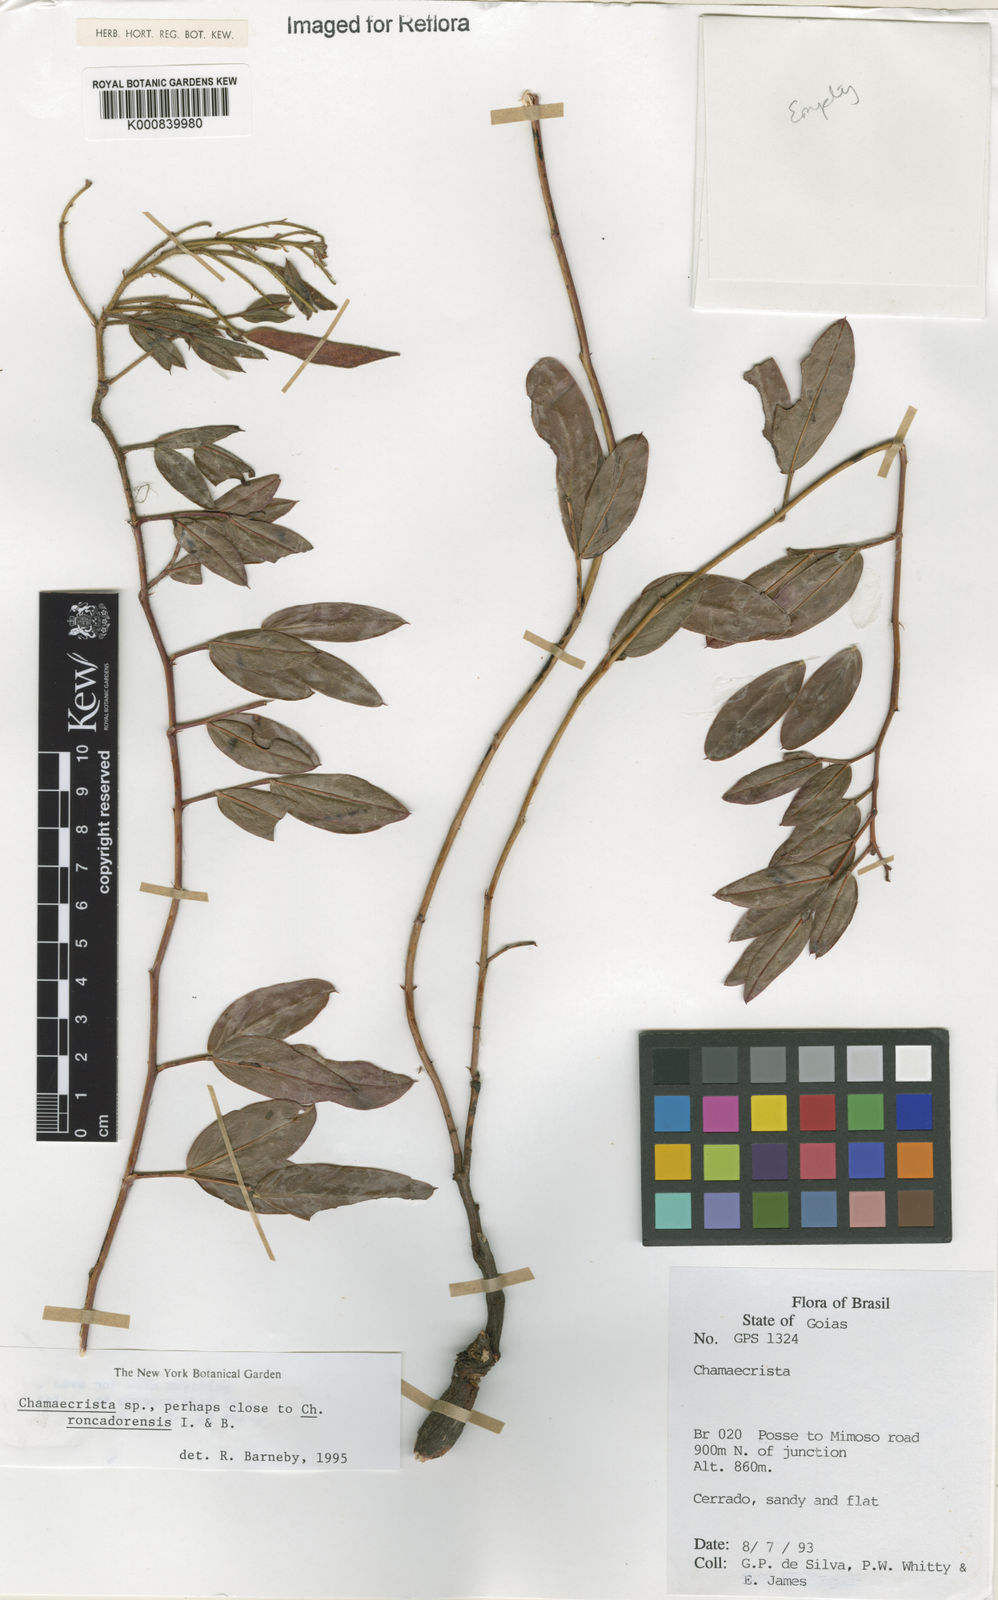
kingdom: Plantae
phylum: Tracheophyta
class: Magnoliopsida
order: Fabales
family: Fabaceae
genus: Chamaecrista
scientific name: Chamaecrista
